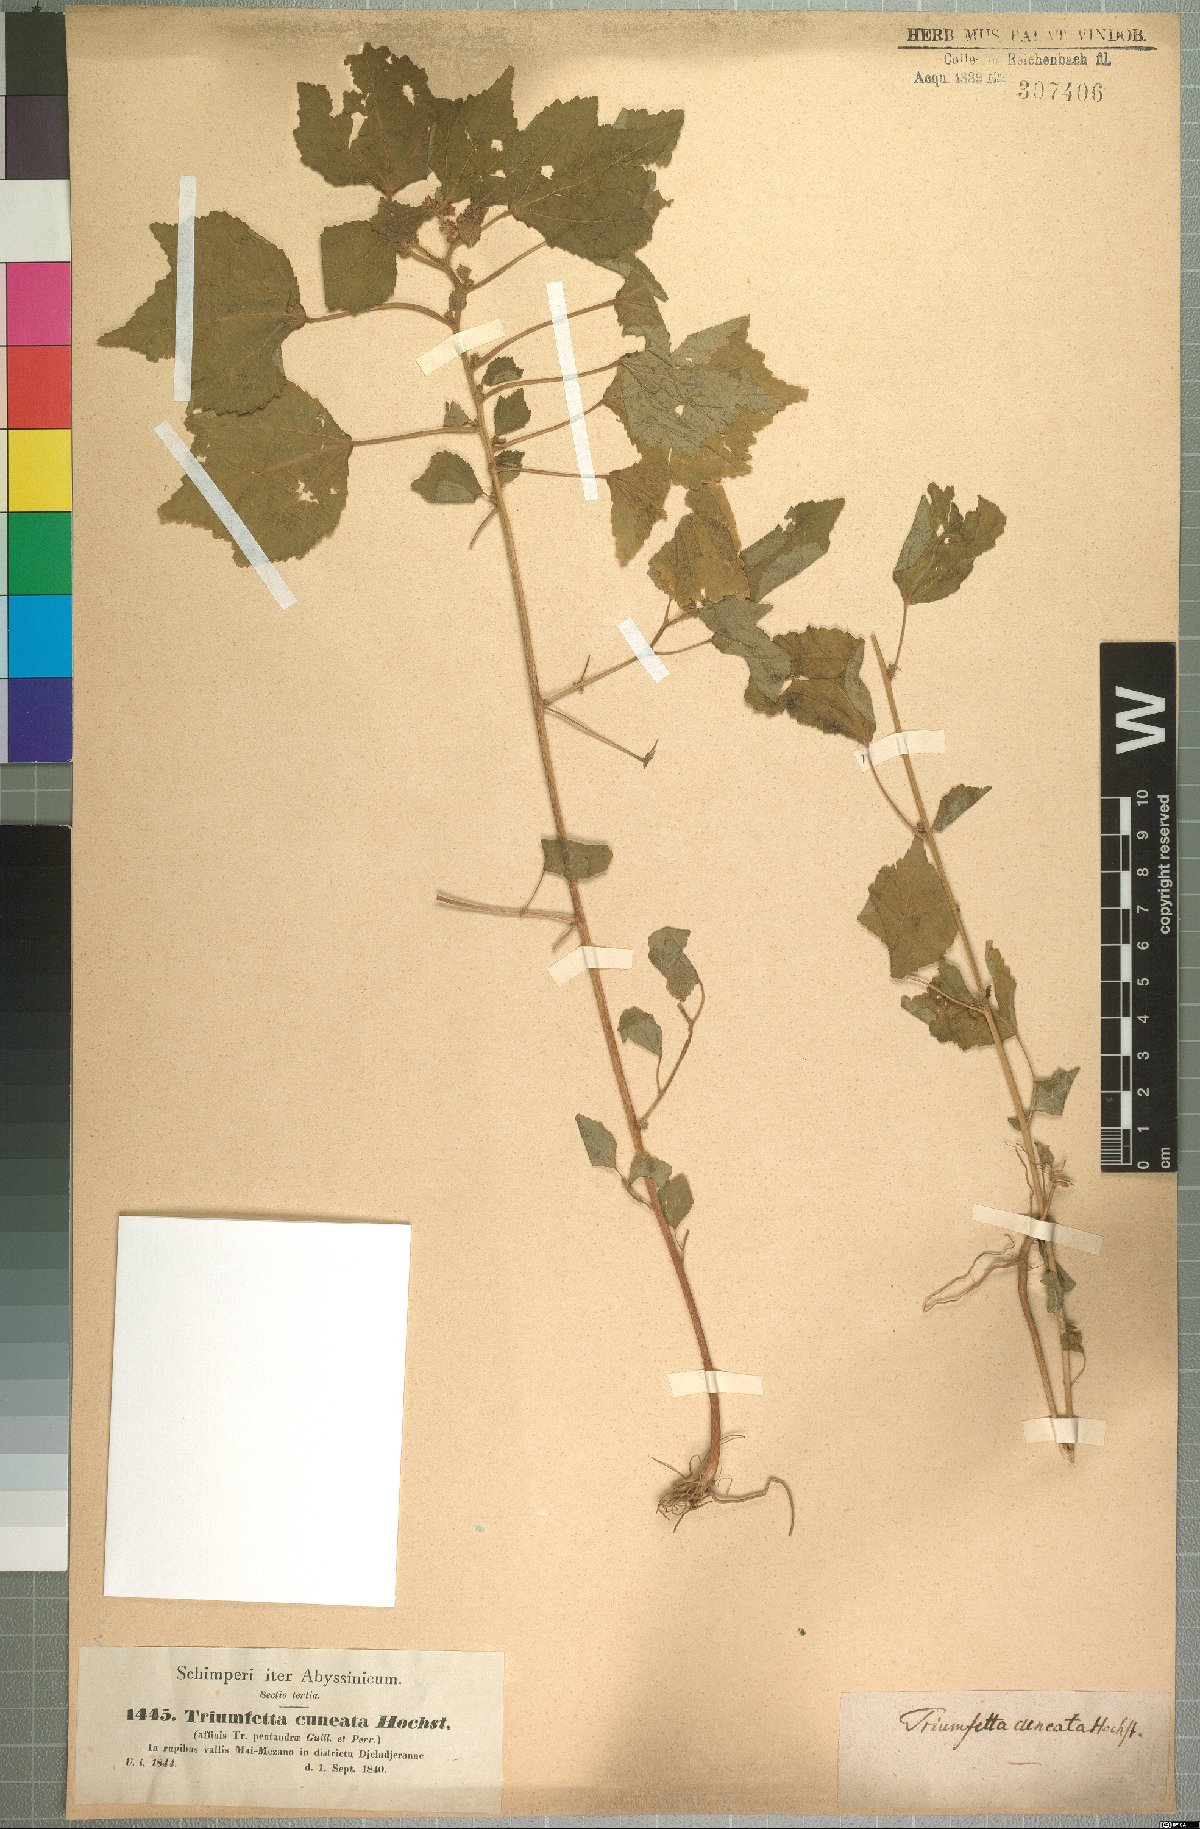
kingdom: Plantae
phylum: Tracheophyta
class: Magnoliopsida
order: Malvales
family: Malvaceae
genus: Triumfetta
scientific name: Triumfetta pentandra
